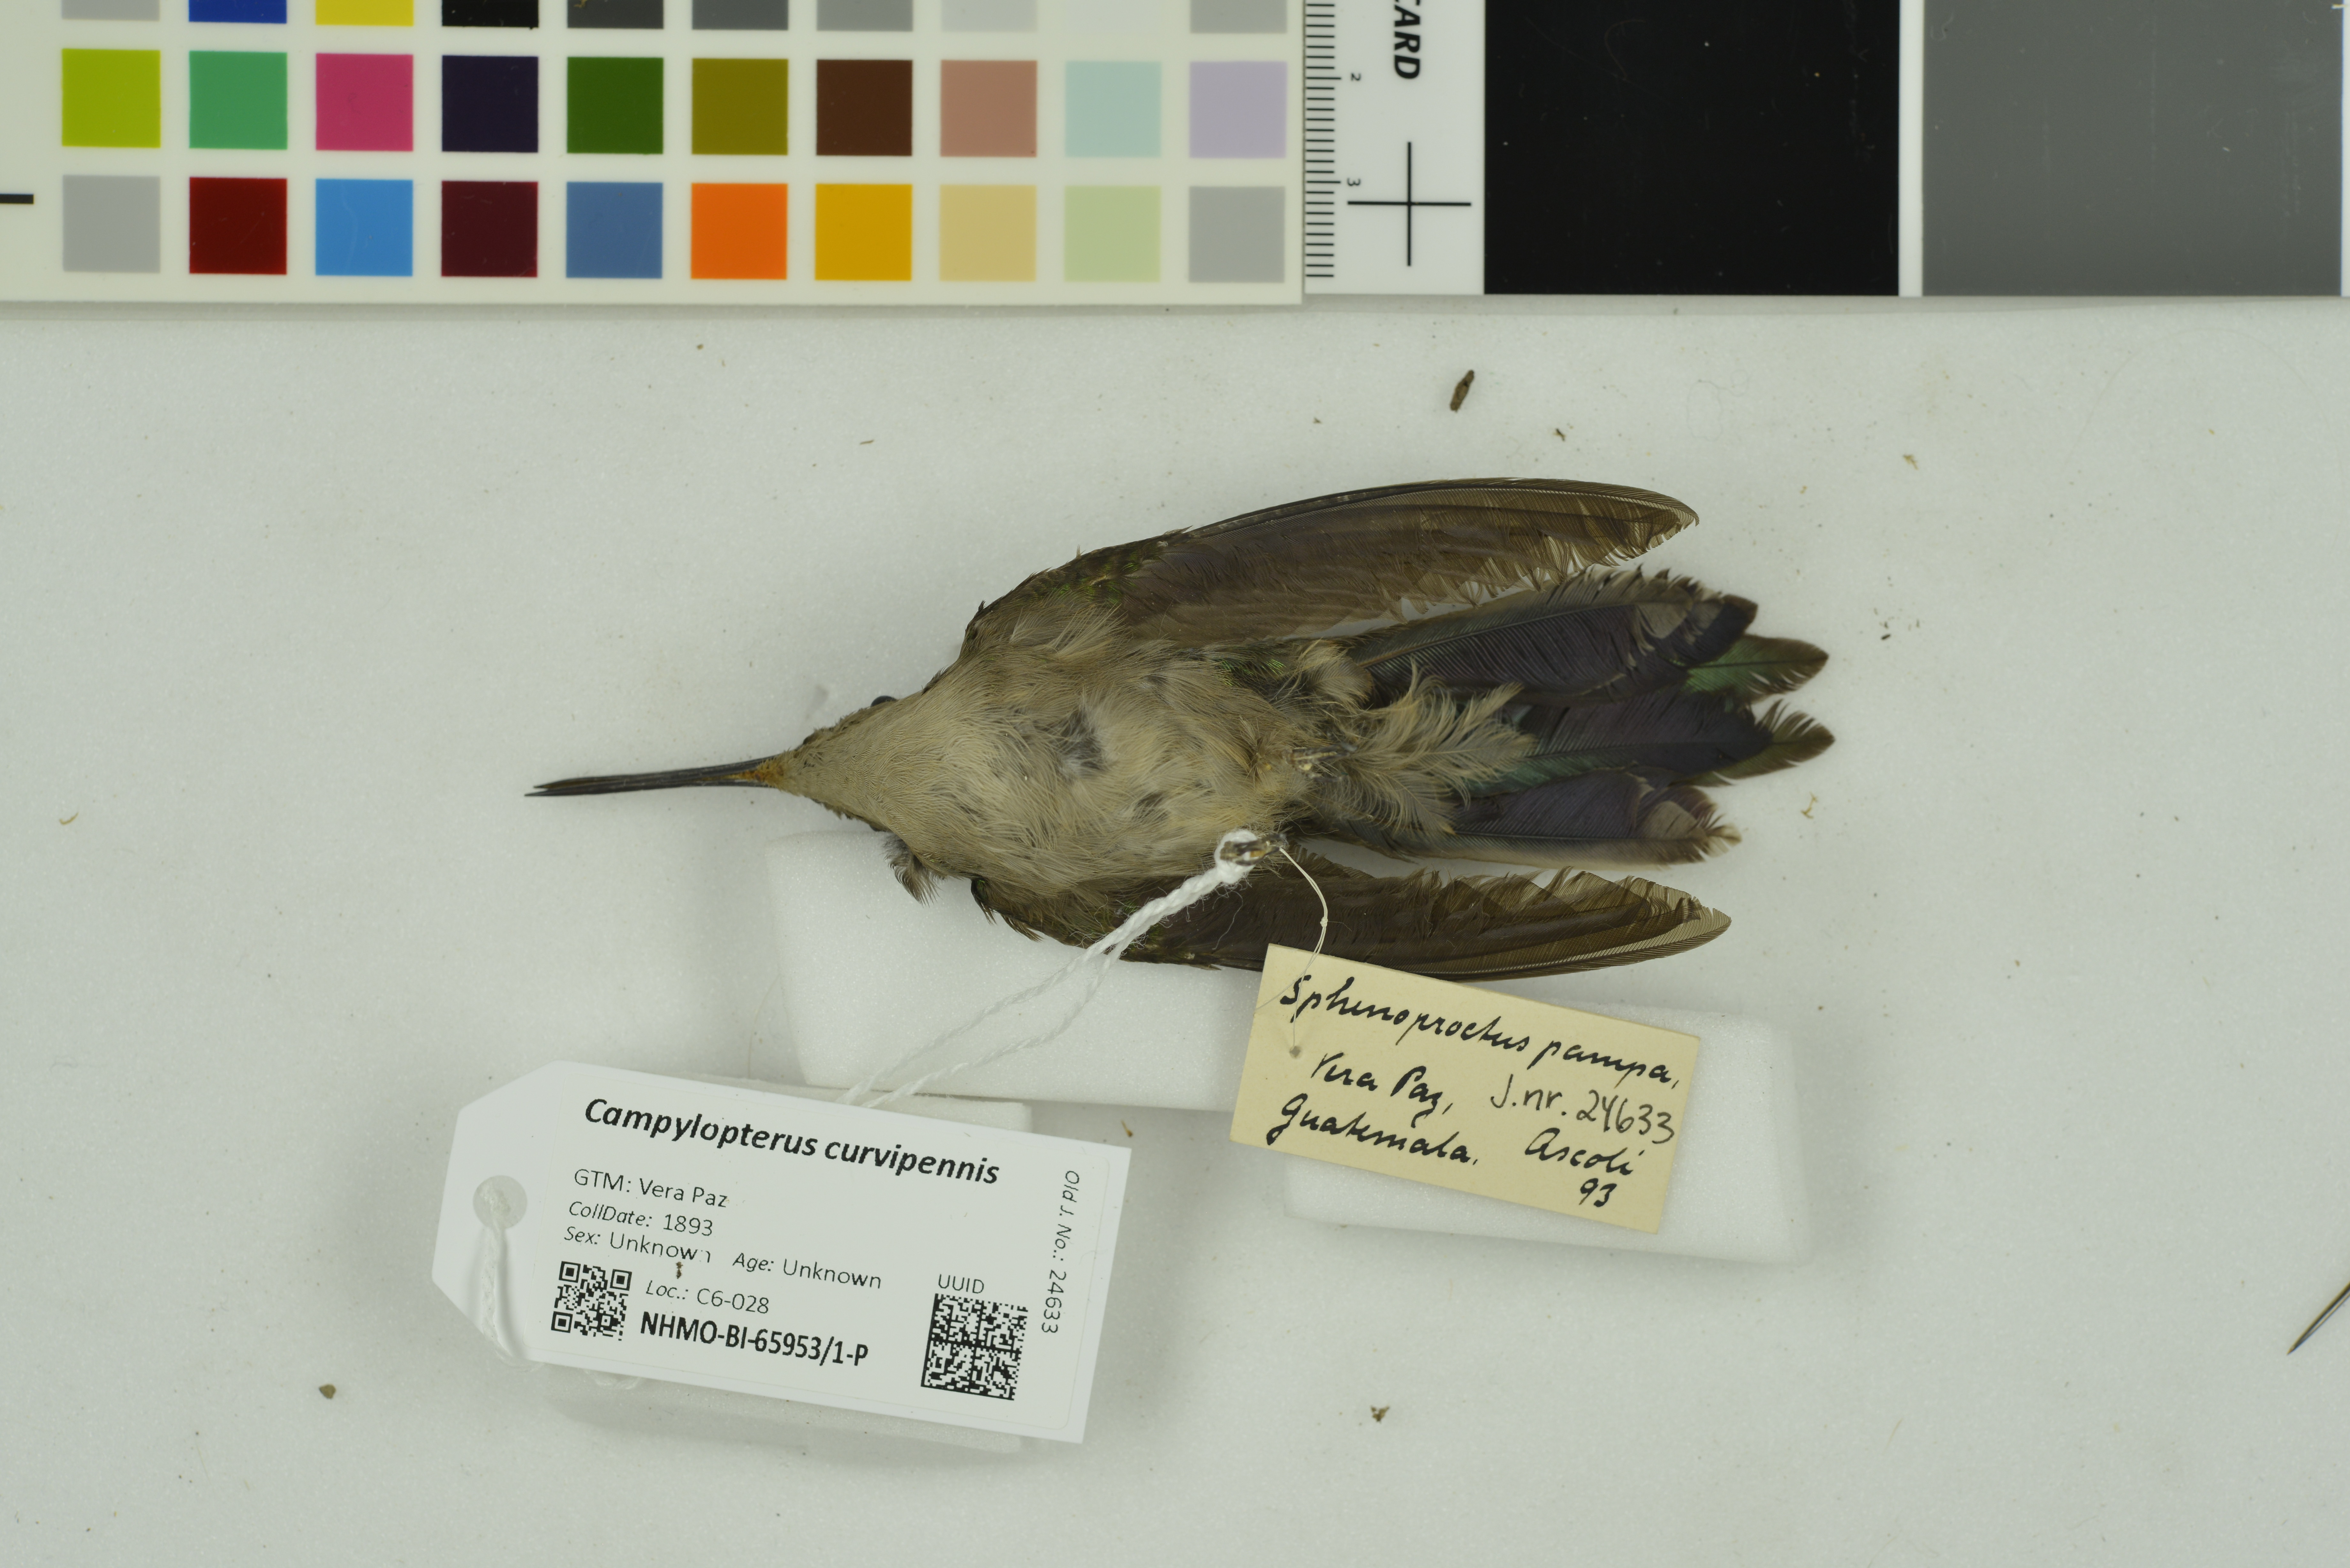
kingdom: Animalia
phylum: Chordata
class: Aves
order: Apodiformes
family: Trochilidae
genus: Pampa
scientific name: Pampa curvipennis
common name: Curve-winged sabrewing
